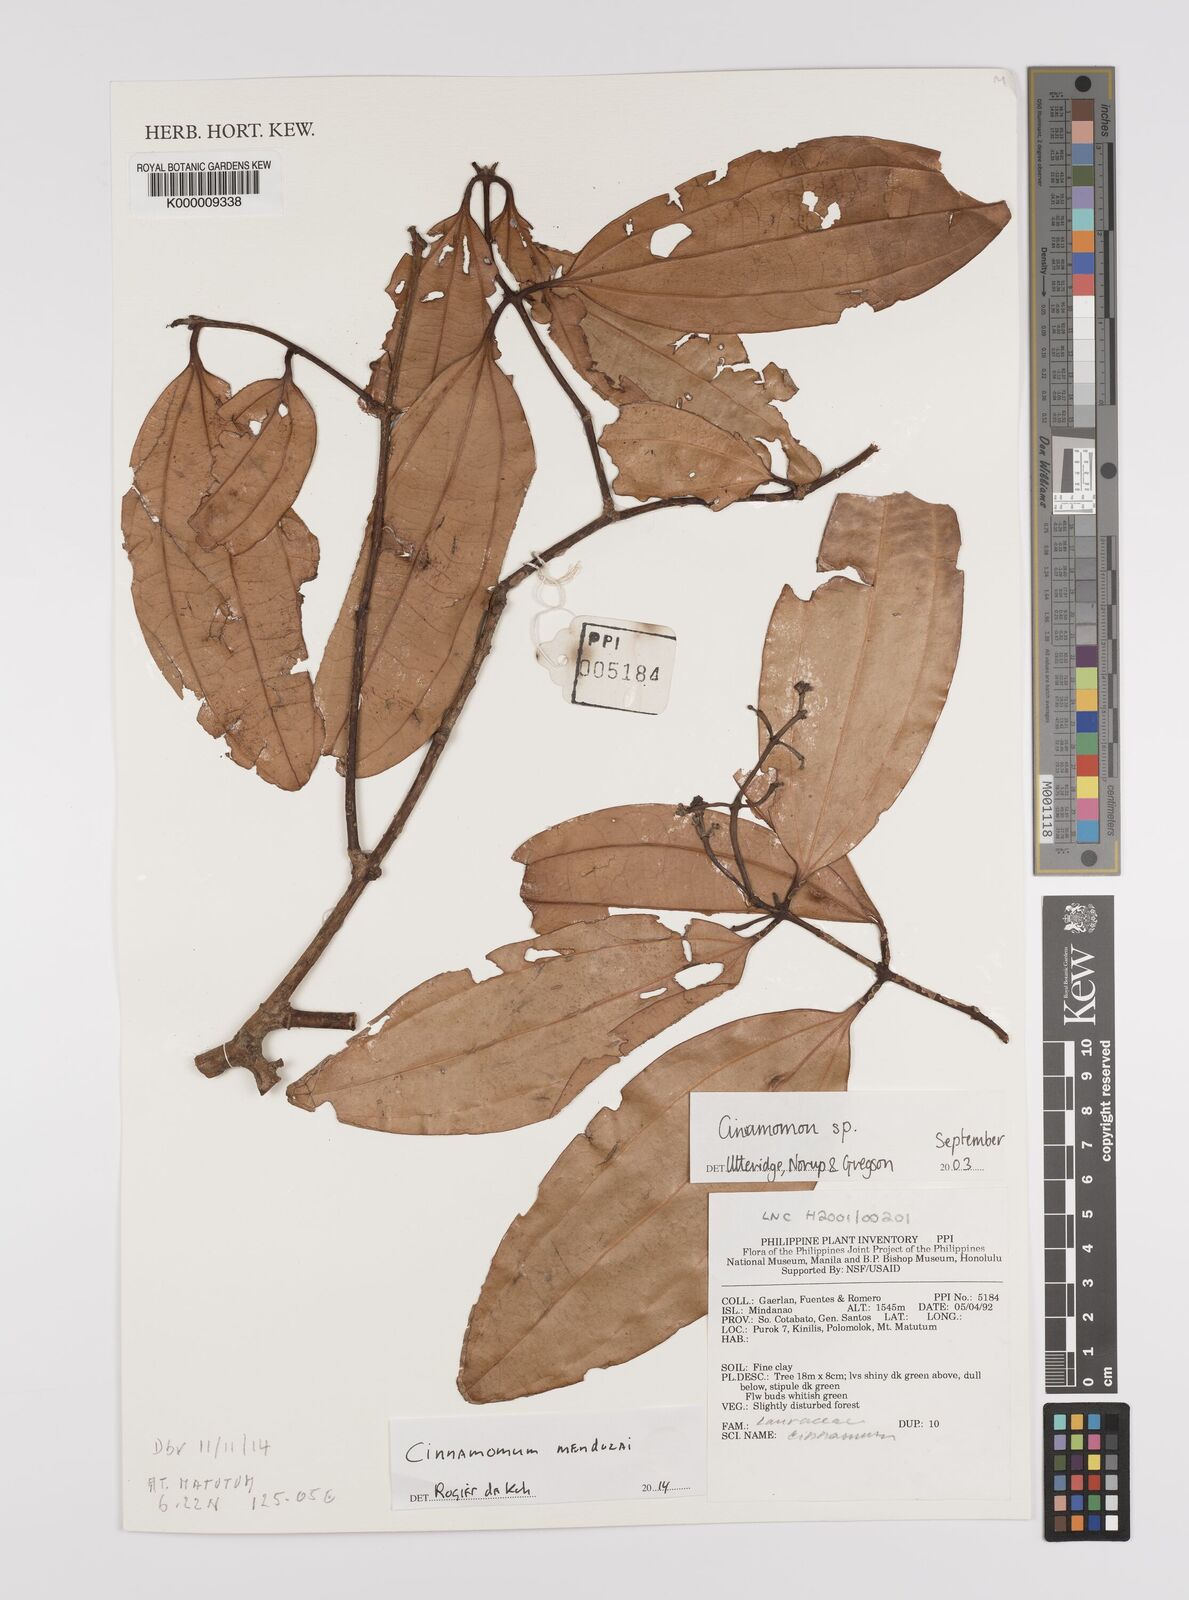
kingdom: Plantae
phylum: Tracheophyta
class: Magnoliopsida
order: Laurales
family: Lauraceae
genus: Cinnamomum
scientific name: Cinnamomum
